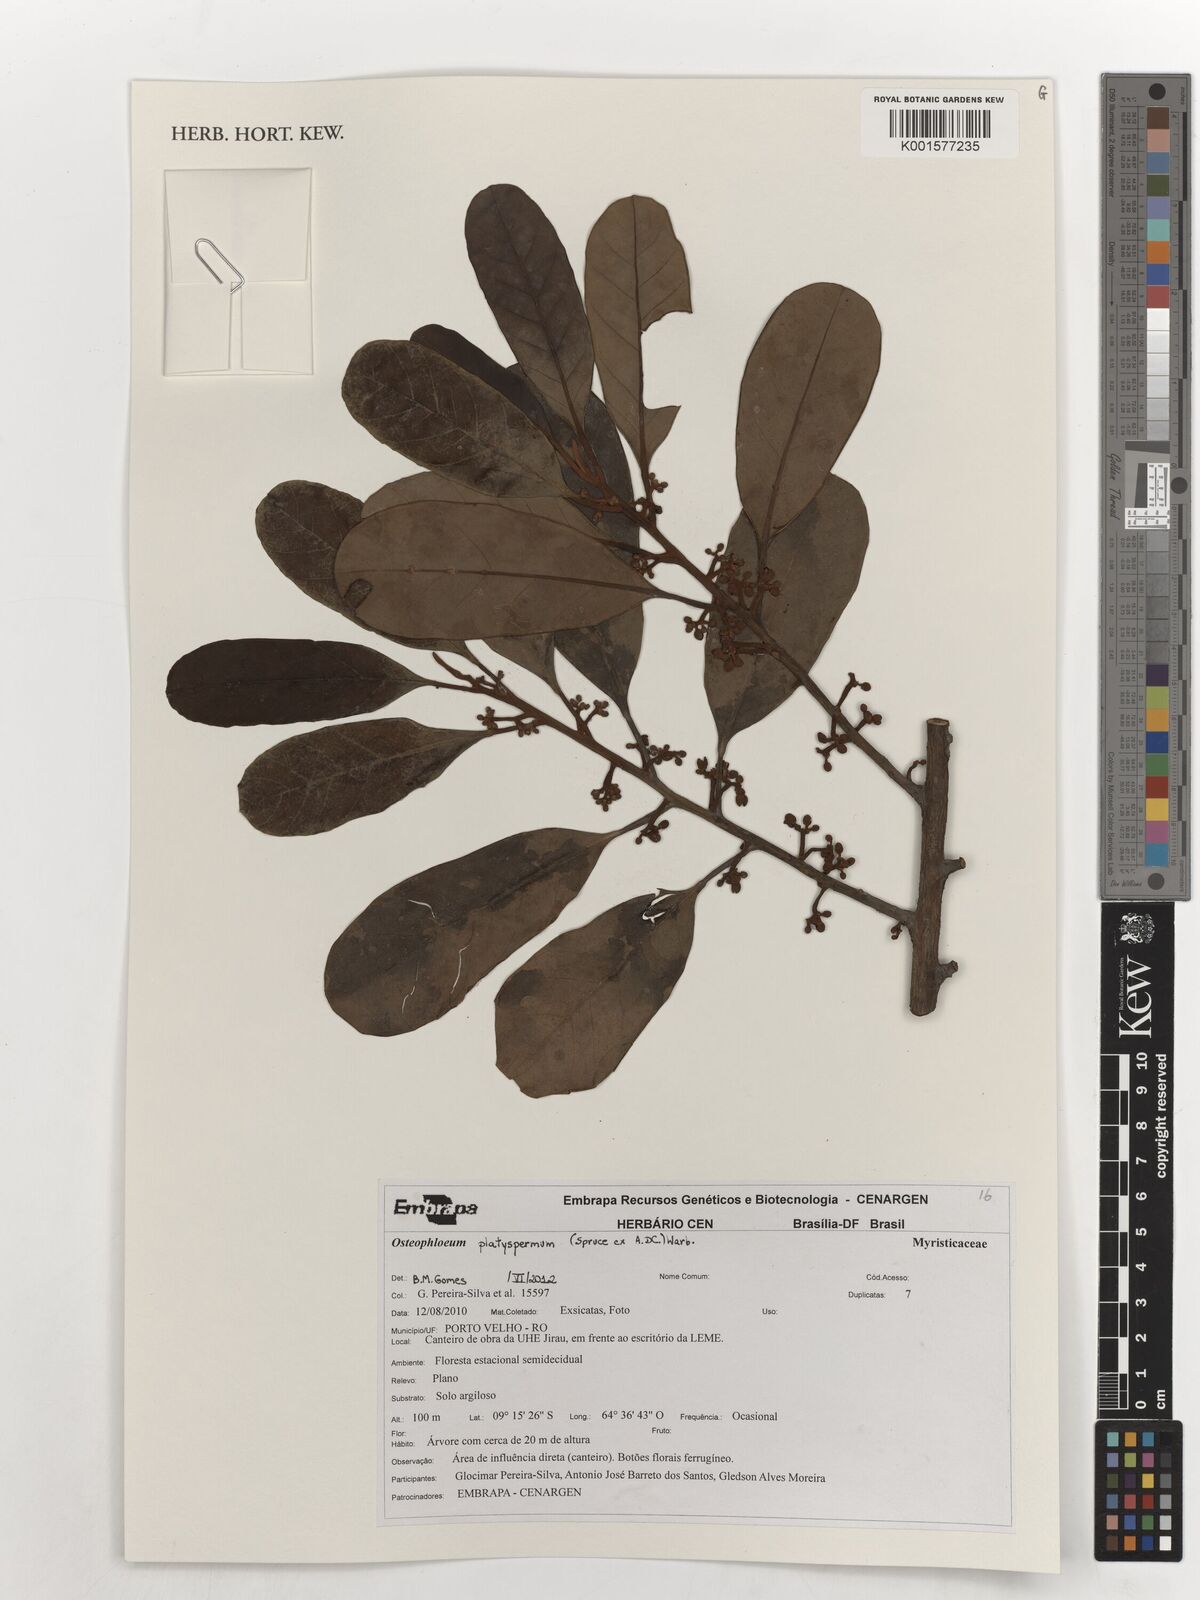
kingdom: Plantae
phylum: Tracheophyta
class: Magnoliopsida
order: Magnoliales
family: Myristicaceae
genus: Osteophloeum
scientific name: Osteophloeum platyspermum
